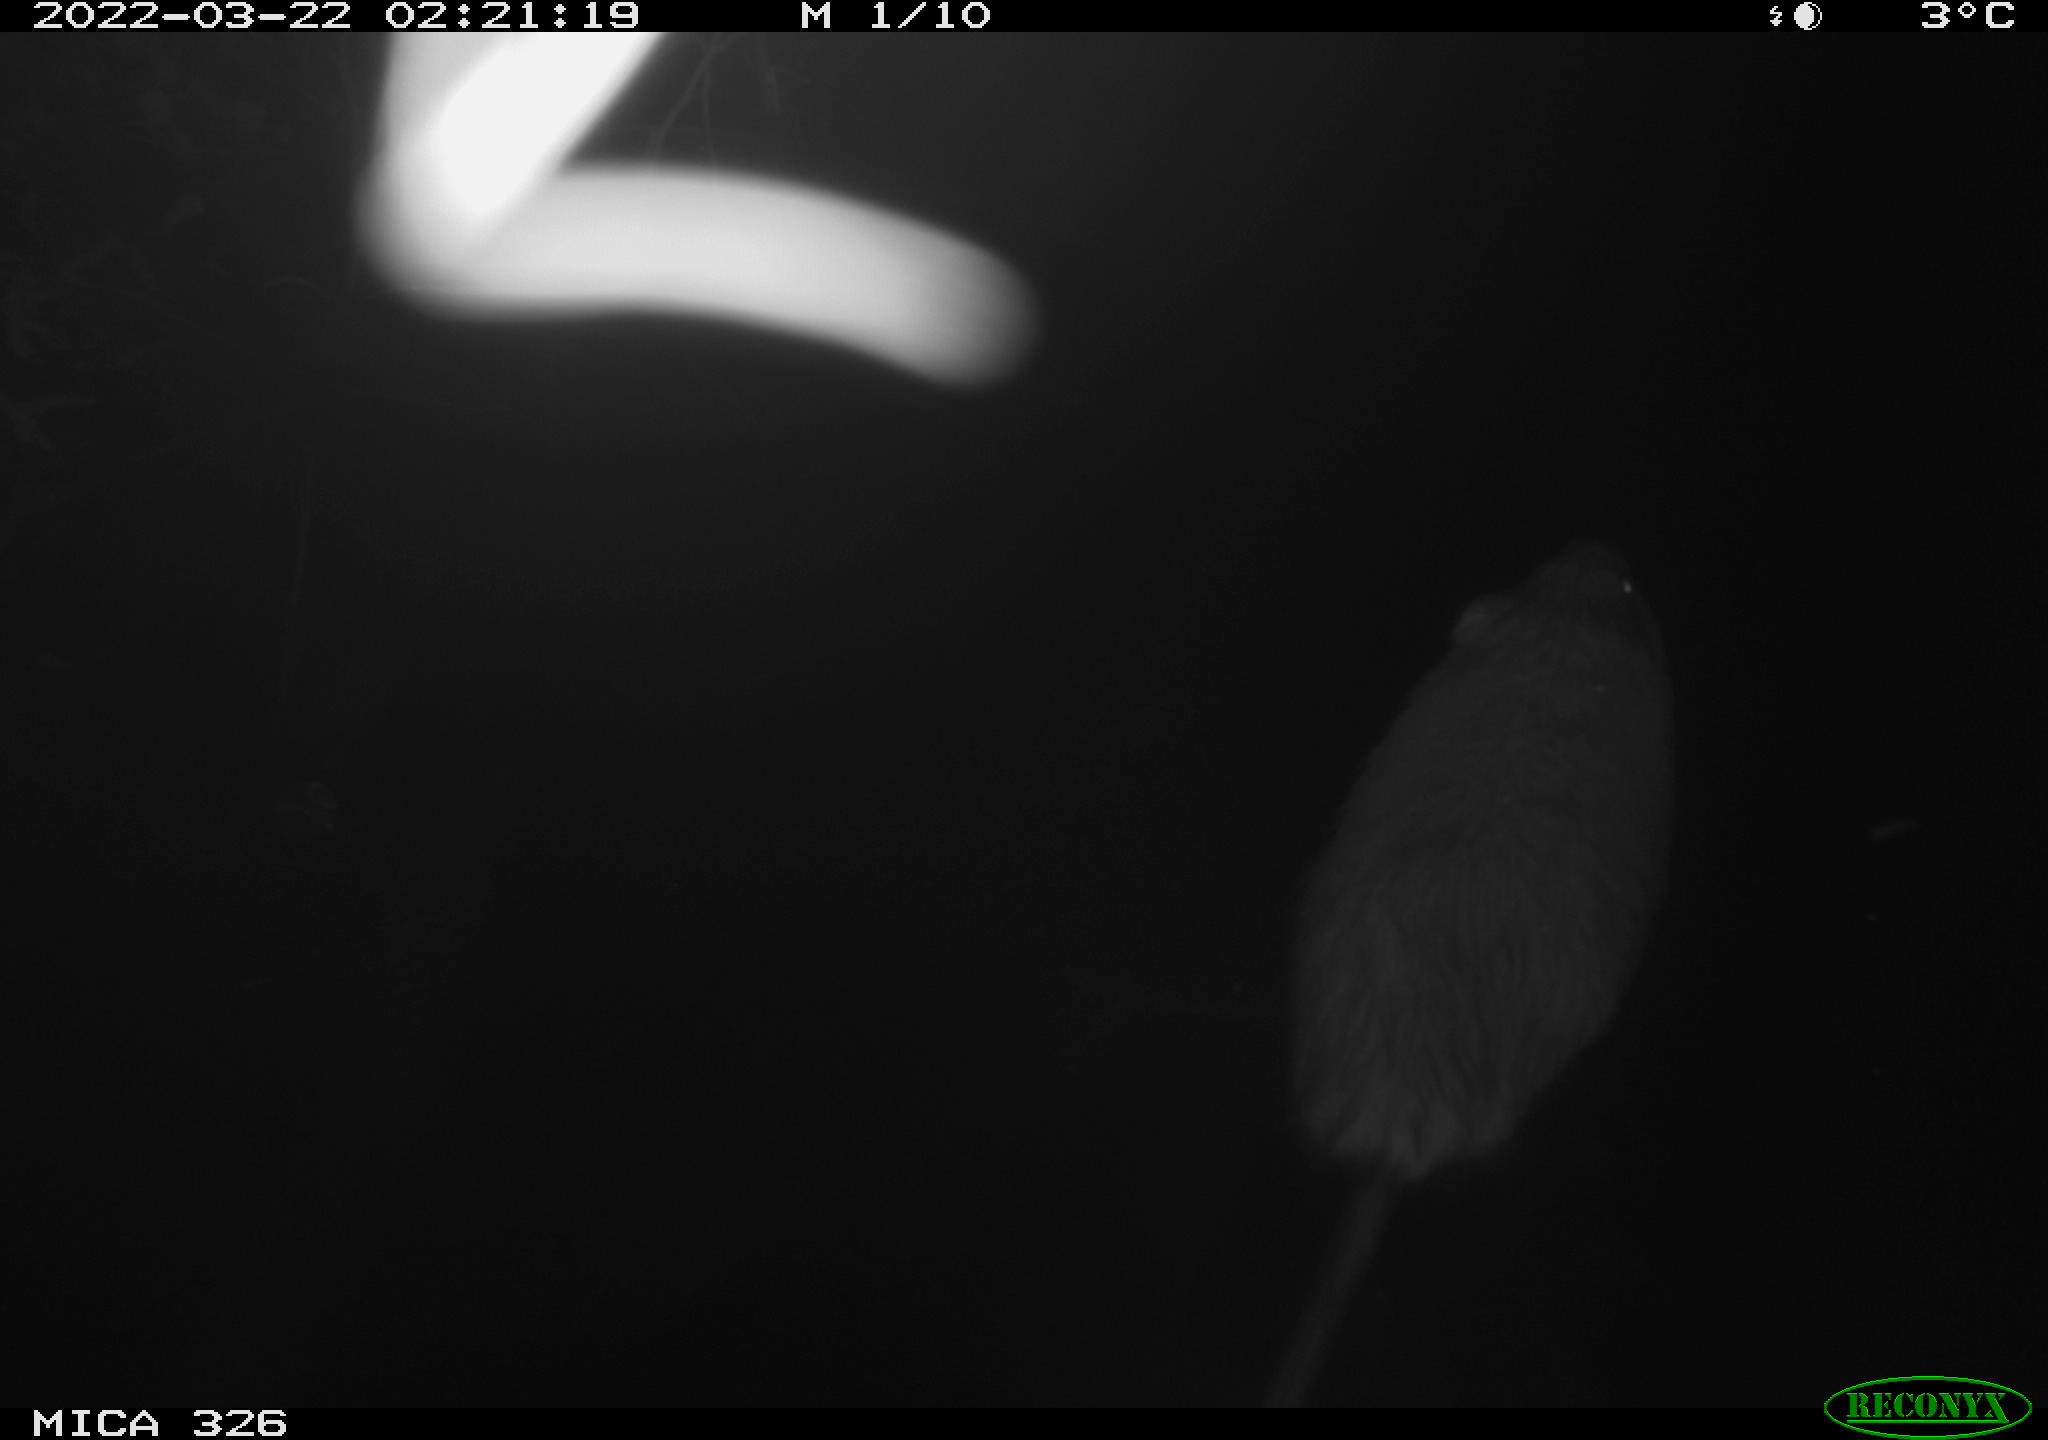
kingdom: Animalia
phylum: Chordata
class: Mammalia
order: Rodentia
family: Cricetidae
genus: Ondatra
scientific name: Ondatra zibethicus
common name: Muskrat
